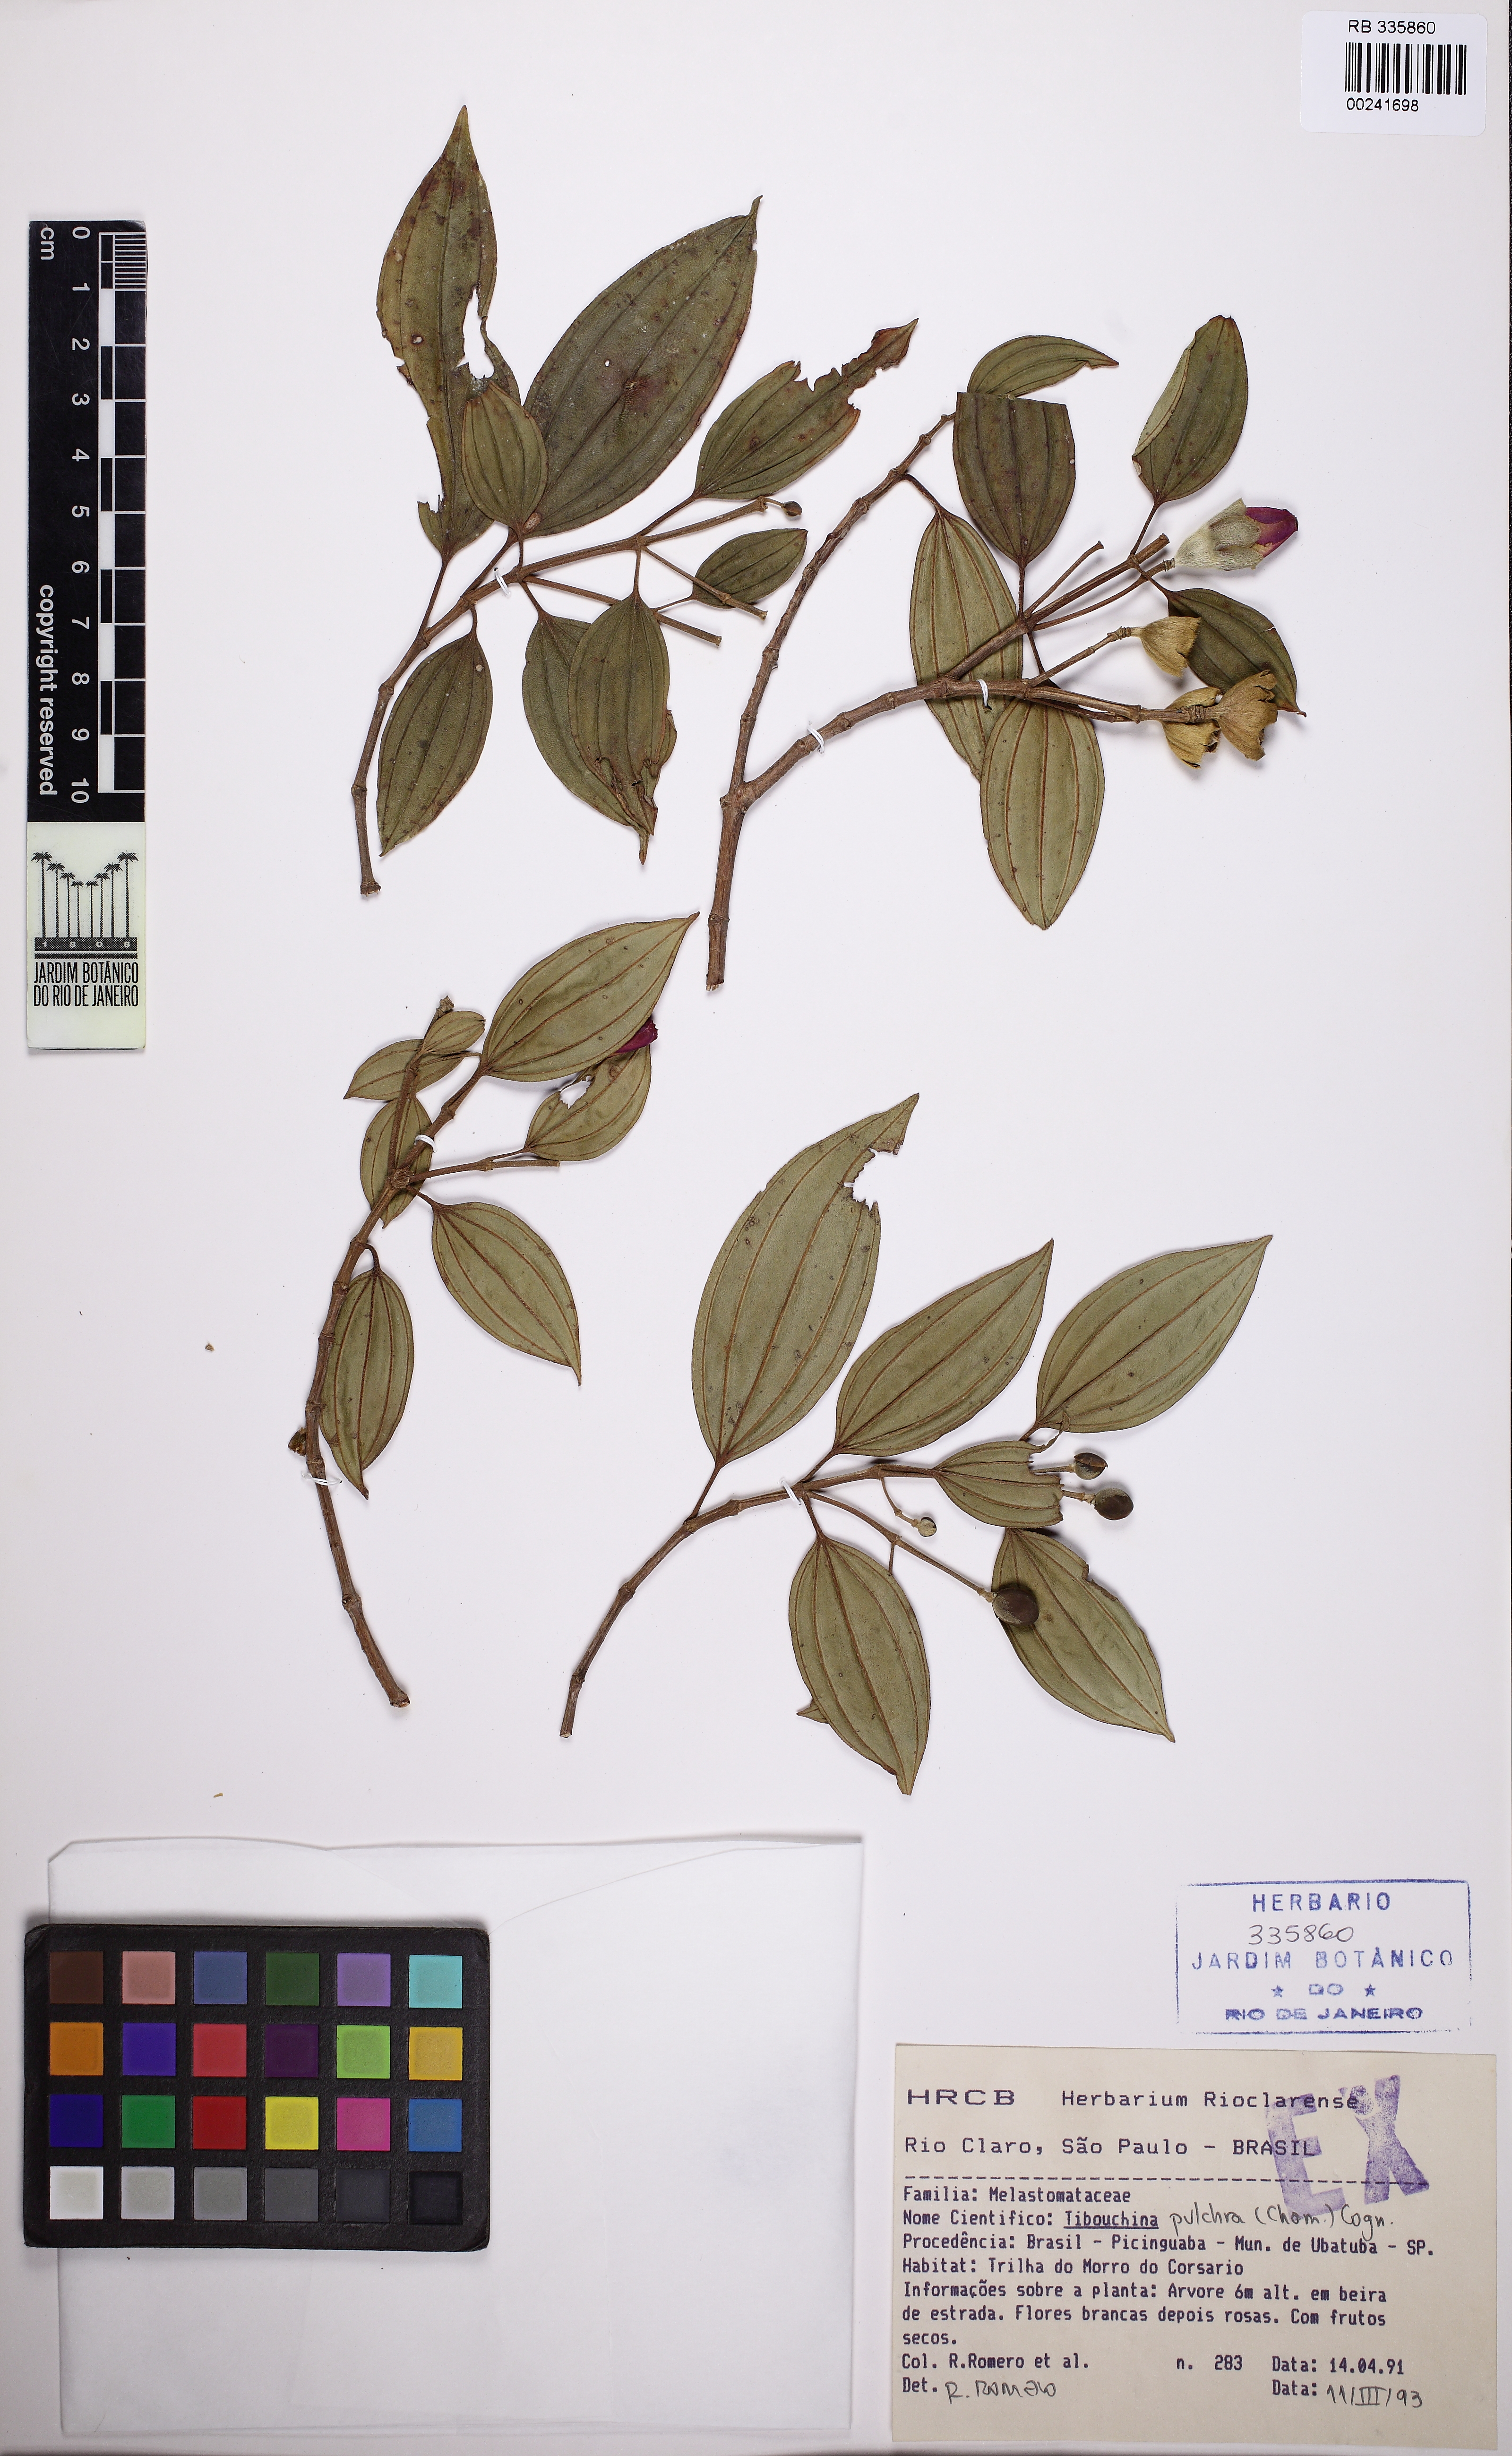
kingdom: Plantae
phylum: Tracheophyta
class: Magnoliopsida
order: Myrtales
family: Melastomataceae
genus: Pleroma
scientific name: Pleroma raddianum
